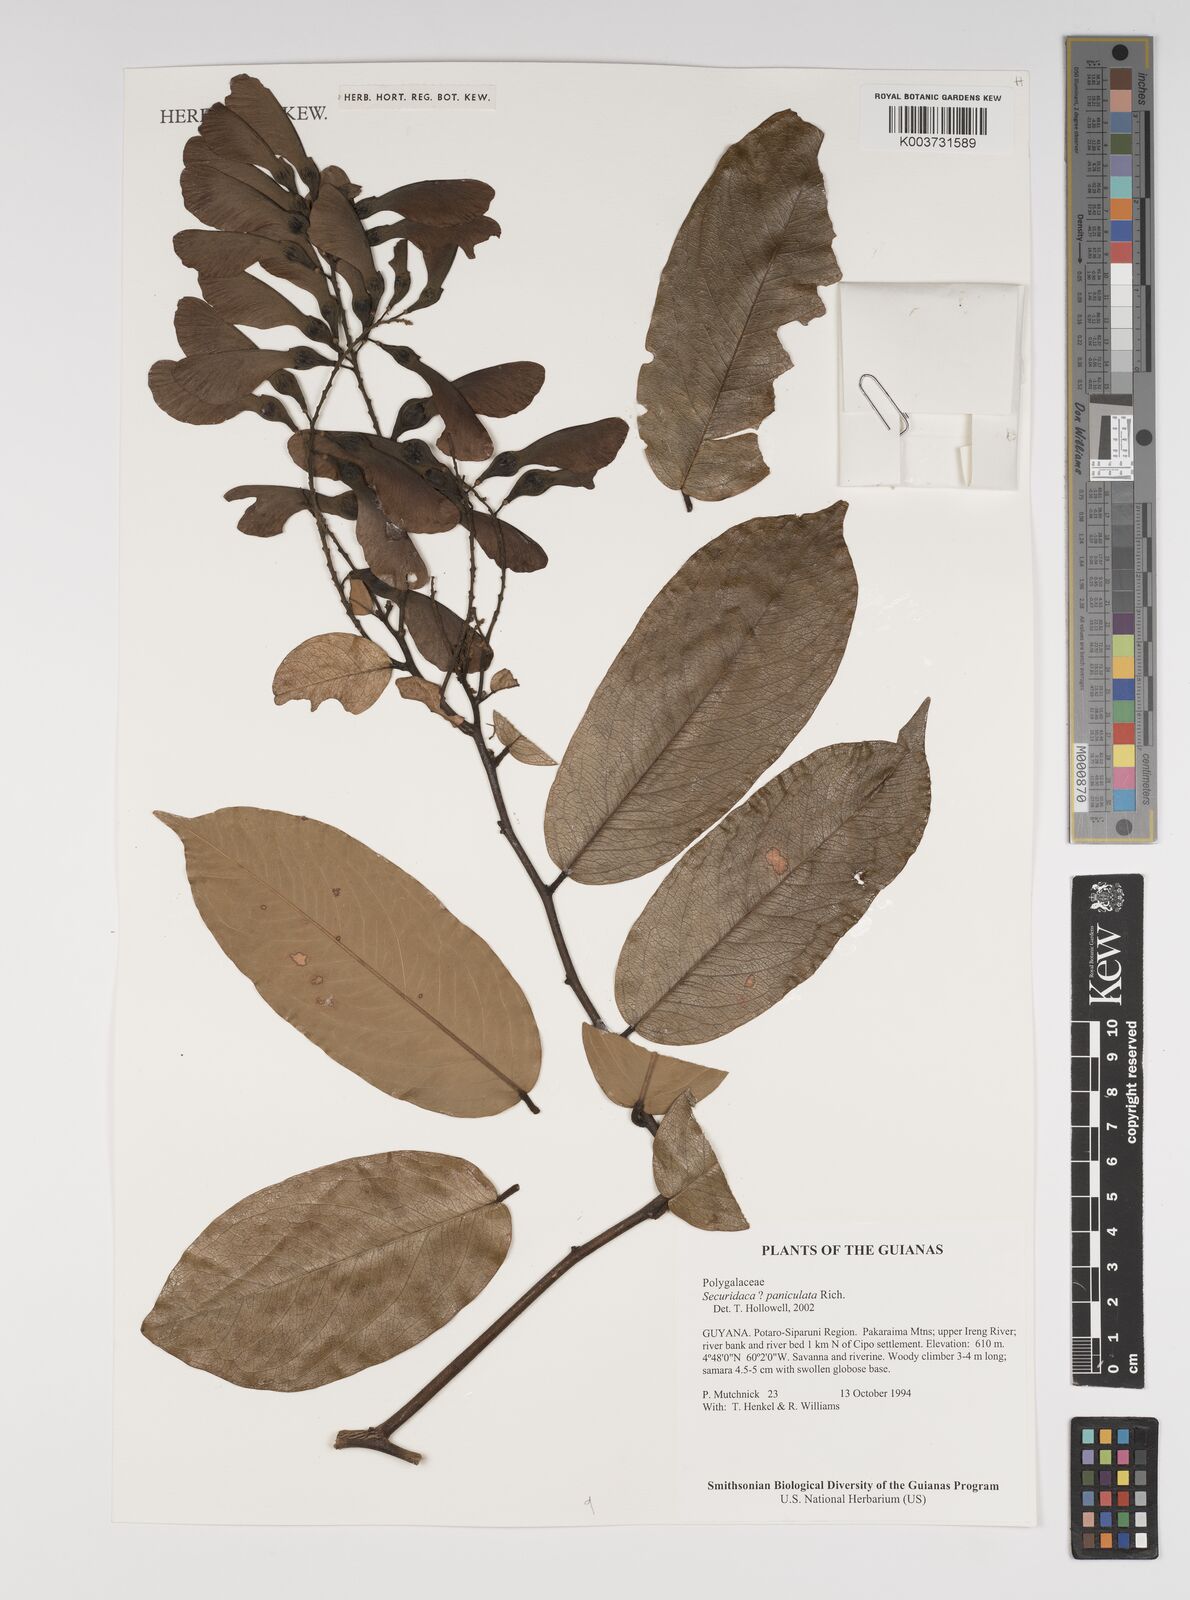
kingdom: Plantae
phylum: Tracheophyta
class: Magnoliopsida
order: Fabales
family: Polygalaceae
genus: Securidaca
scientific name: Securidaca paniculata
